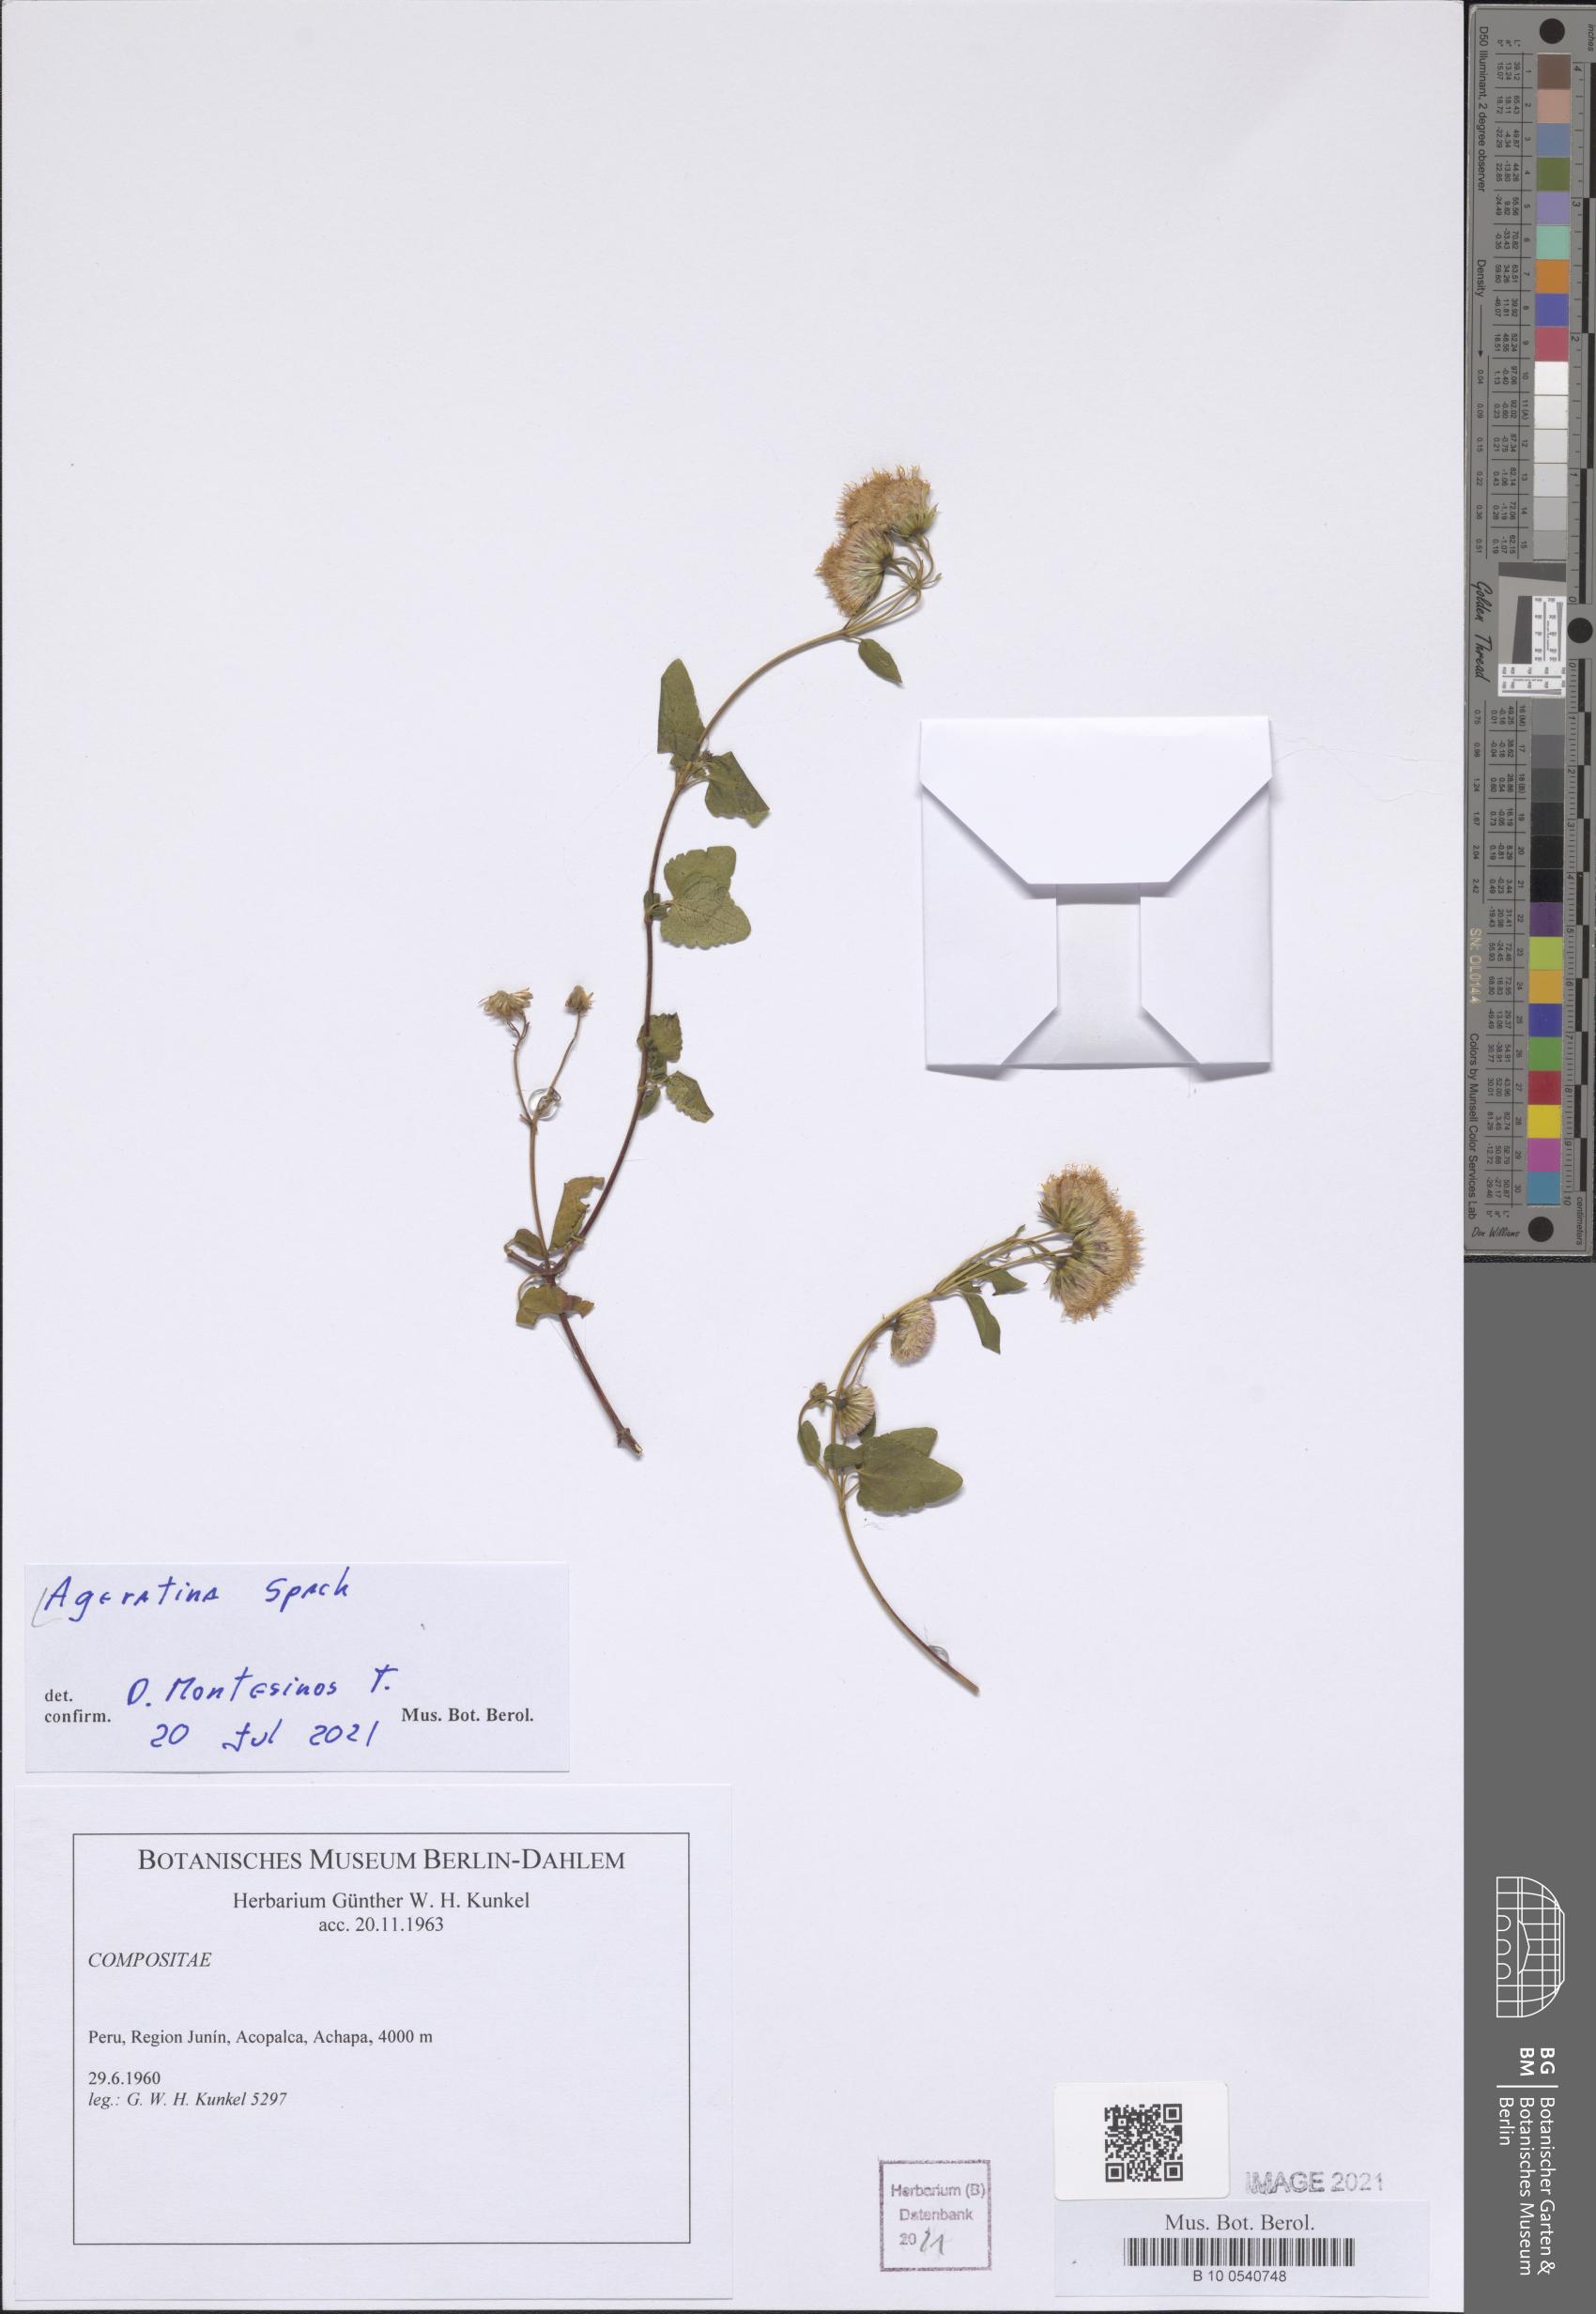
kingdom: Plantae
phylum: Tracheophyta
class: Magnoliopsida
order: Asterales
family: Asteraceae
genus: Ageratina
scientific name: Ageratina
